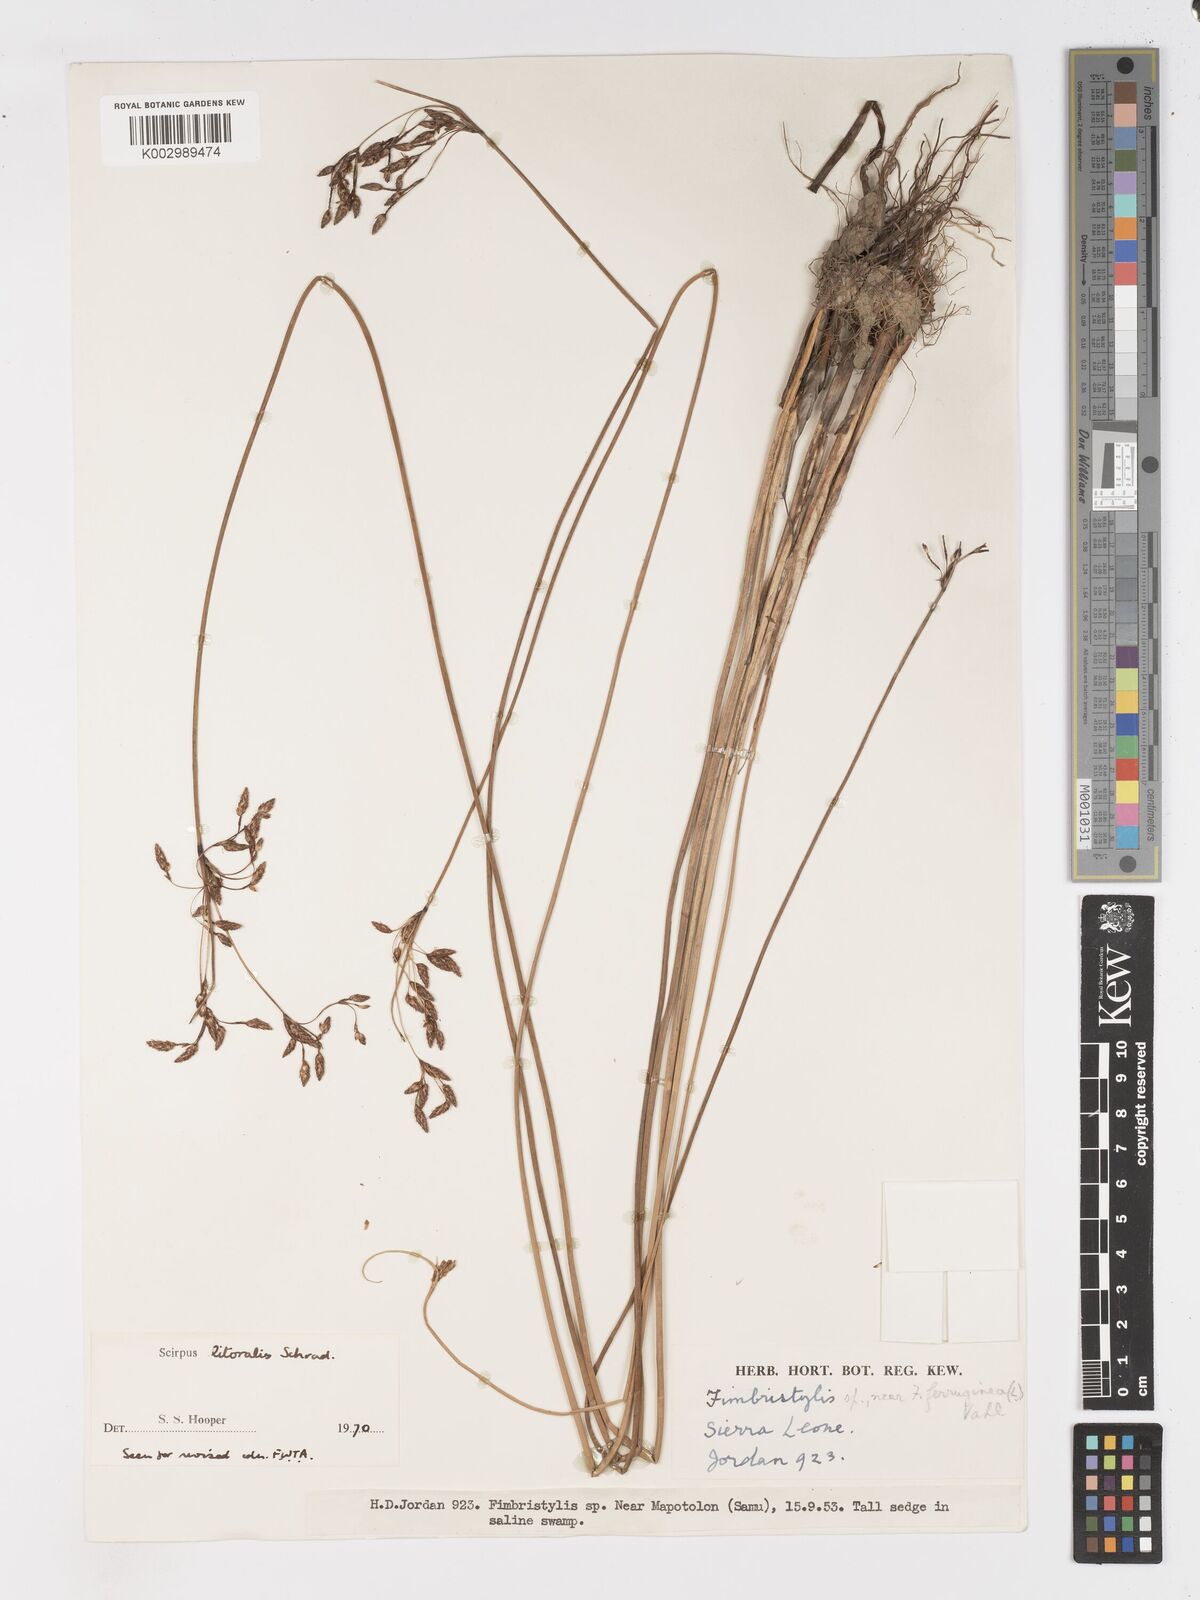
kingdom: Plantae
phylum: Tracheophyta
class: Liliopsida
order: Poales
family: Cyperaceae
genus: Schoenoplectus
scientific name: Schoenoplectus litoralis
